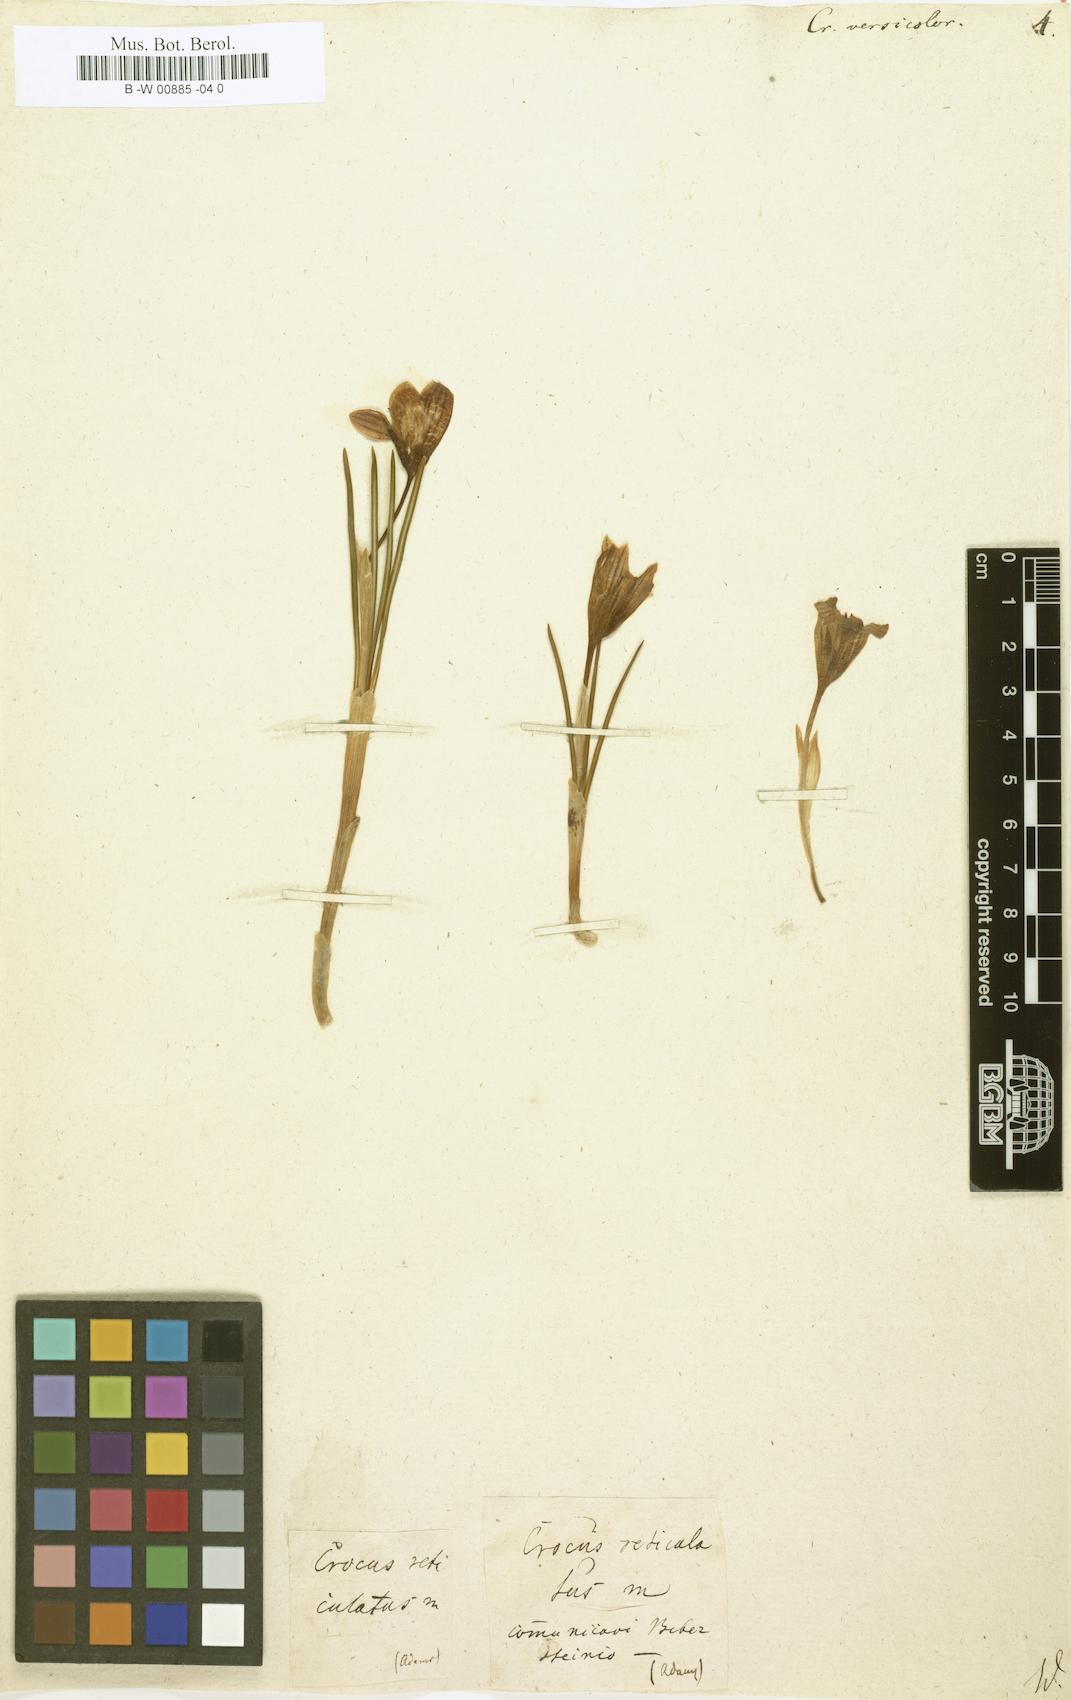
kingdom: Plantae
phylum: Tracheophyta
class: Liliopsida
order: Asparagales
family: Iridaceae
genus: Crocus
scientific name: Crocus versicolor
